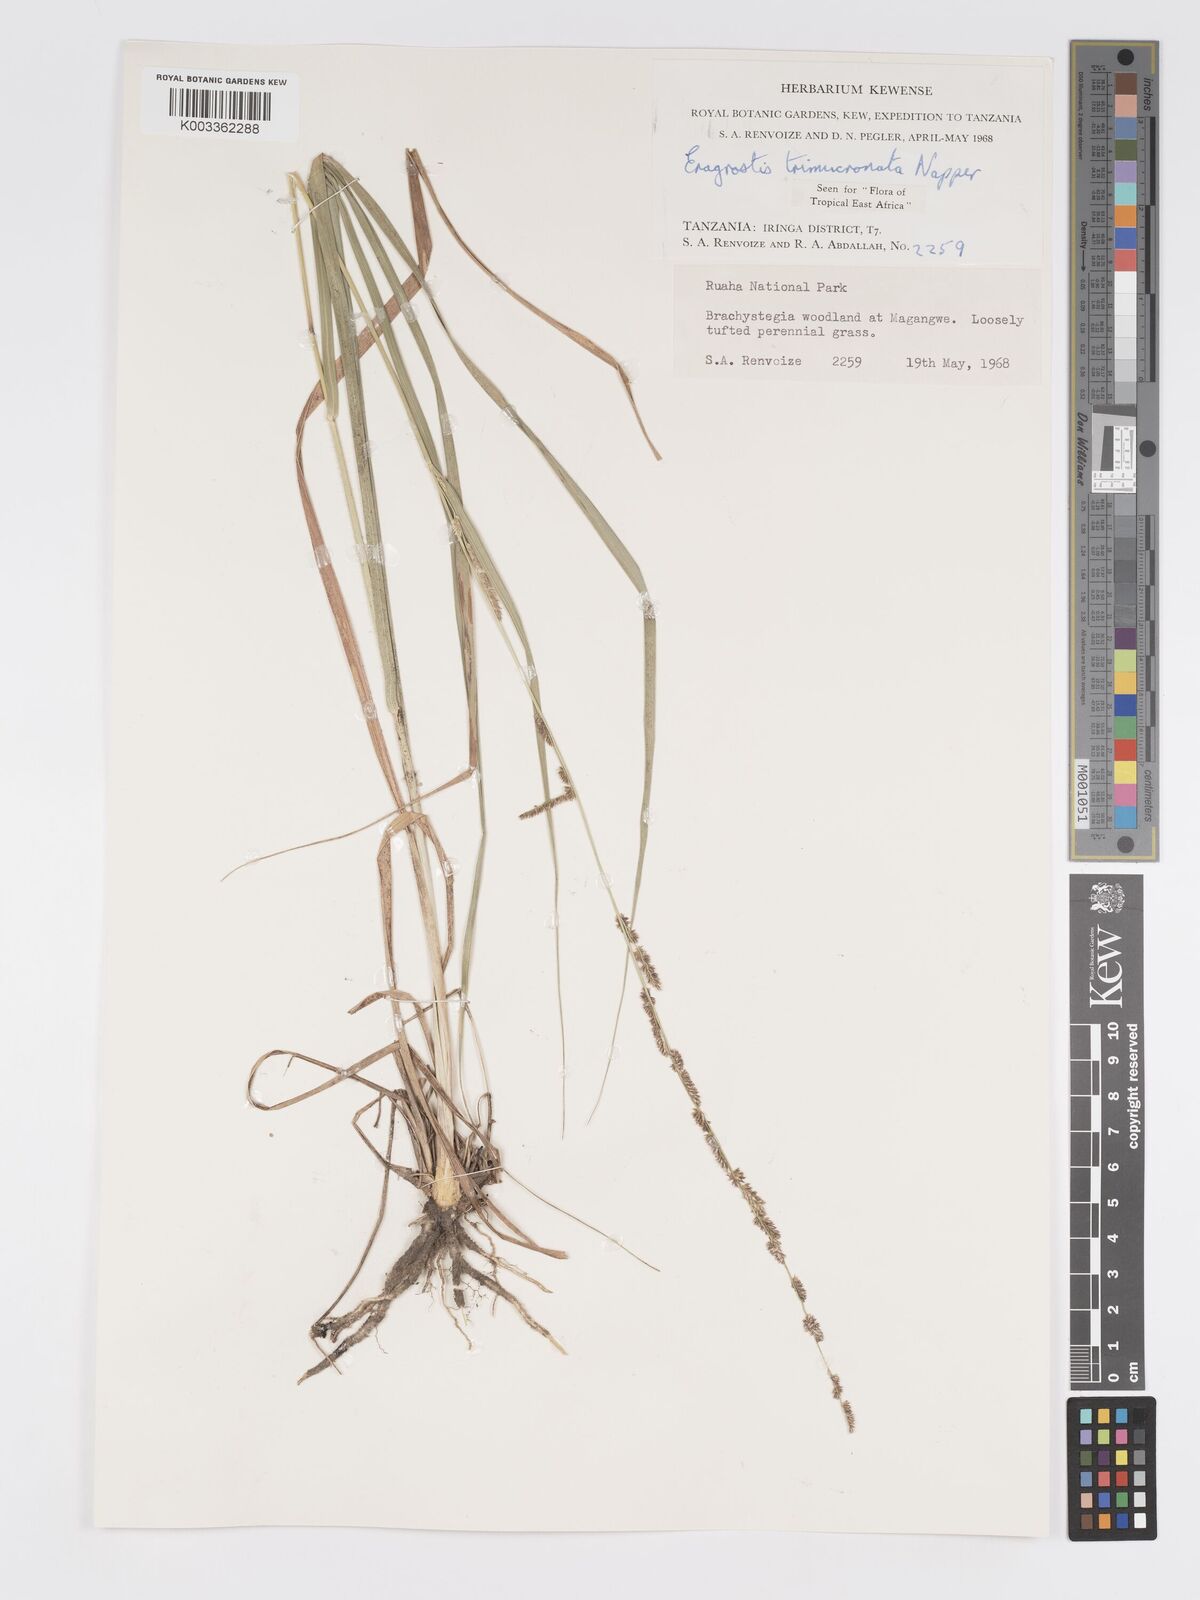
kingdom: Plantae
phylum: Tracheophyta
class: Liliopsida
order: Poales
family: Poaceae
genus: Eragrostis
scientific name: Eragrostis trimucronata
